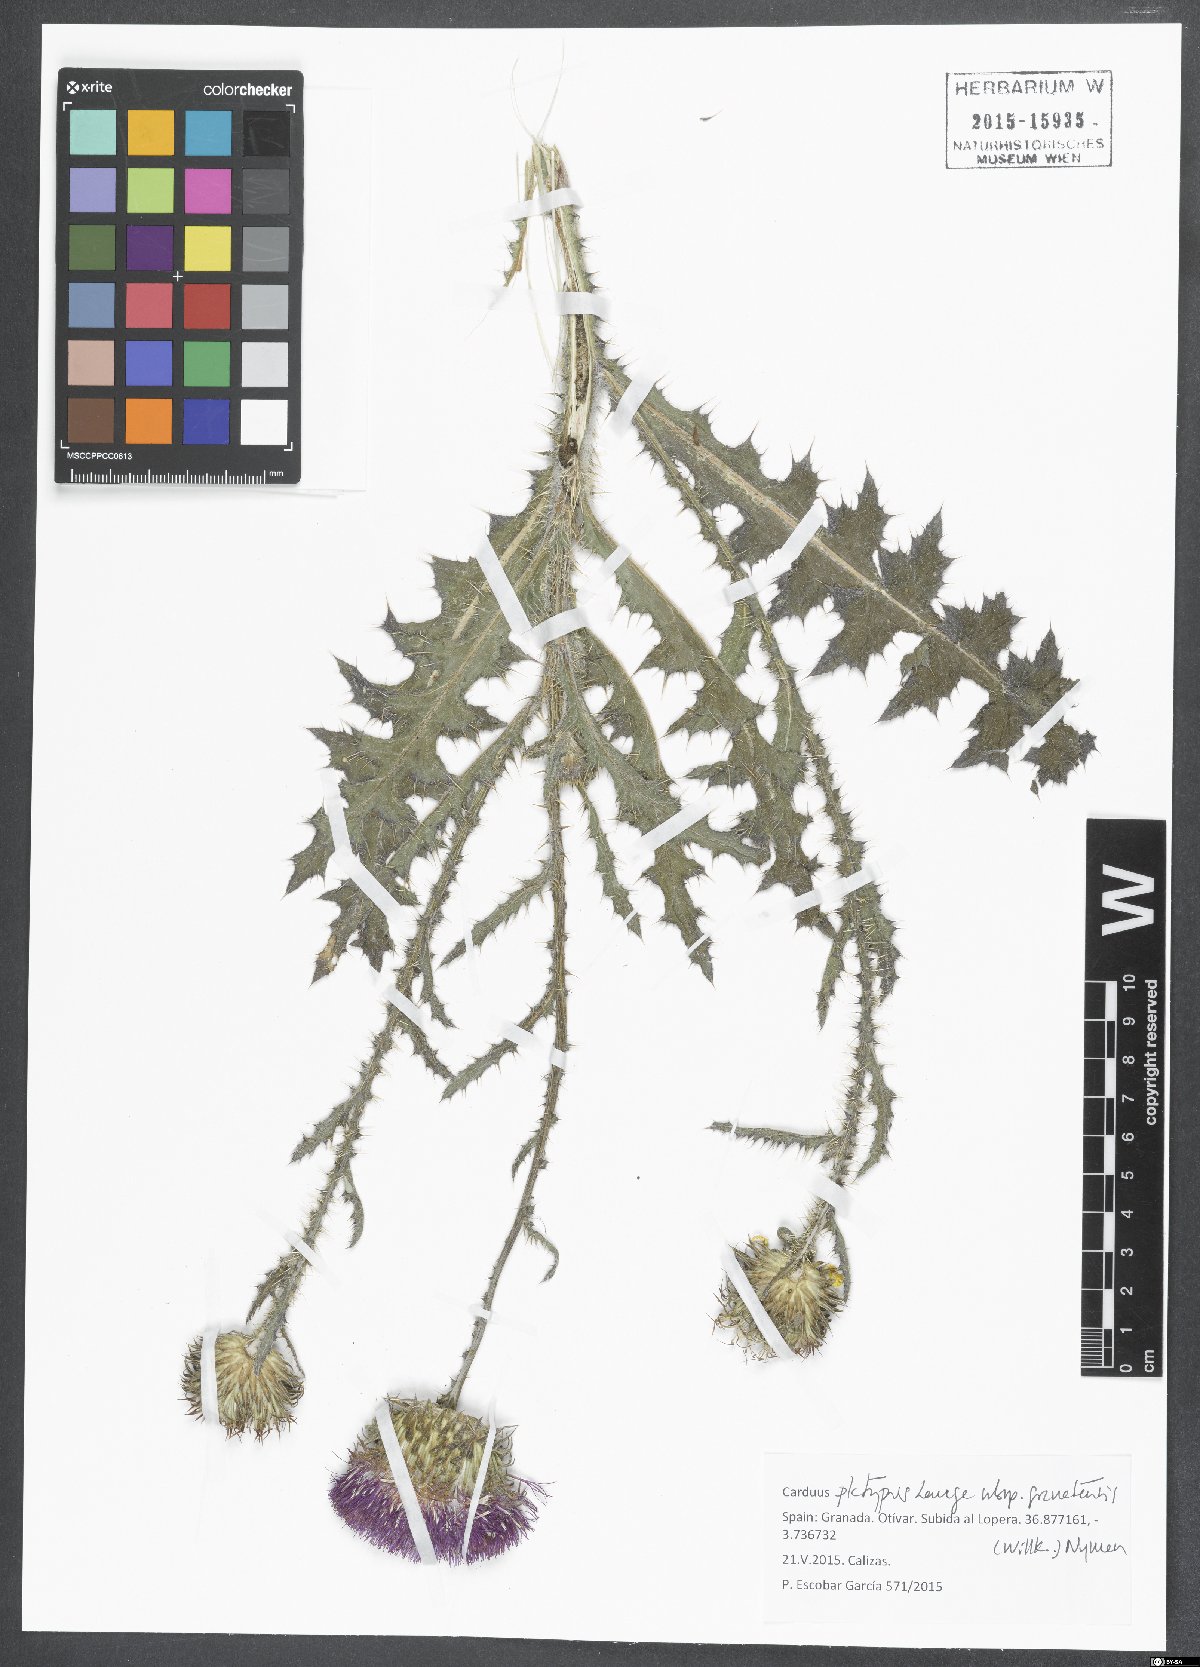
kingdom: Plantae
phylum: Tracheophyta
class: Magnoliopsida
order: Asterales
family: Asteraceae
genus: Carduus
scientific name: Carduus platypus
